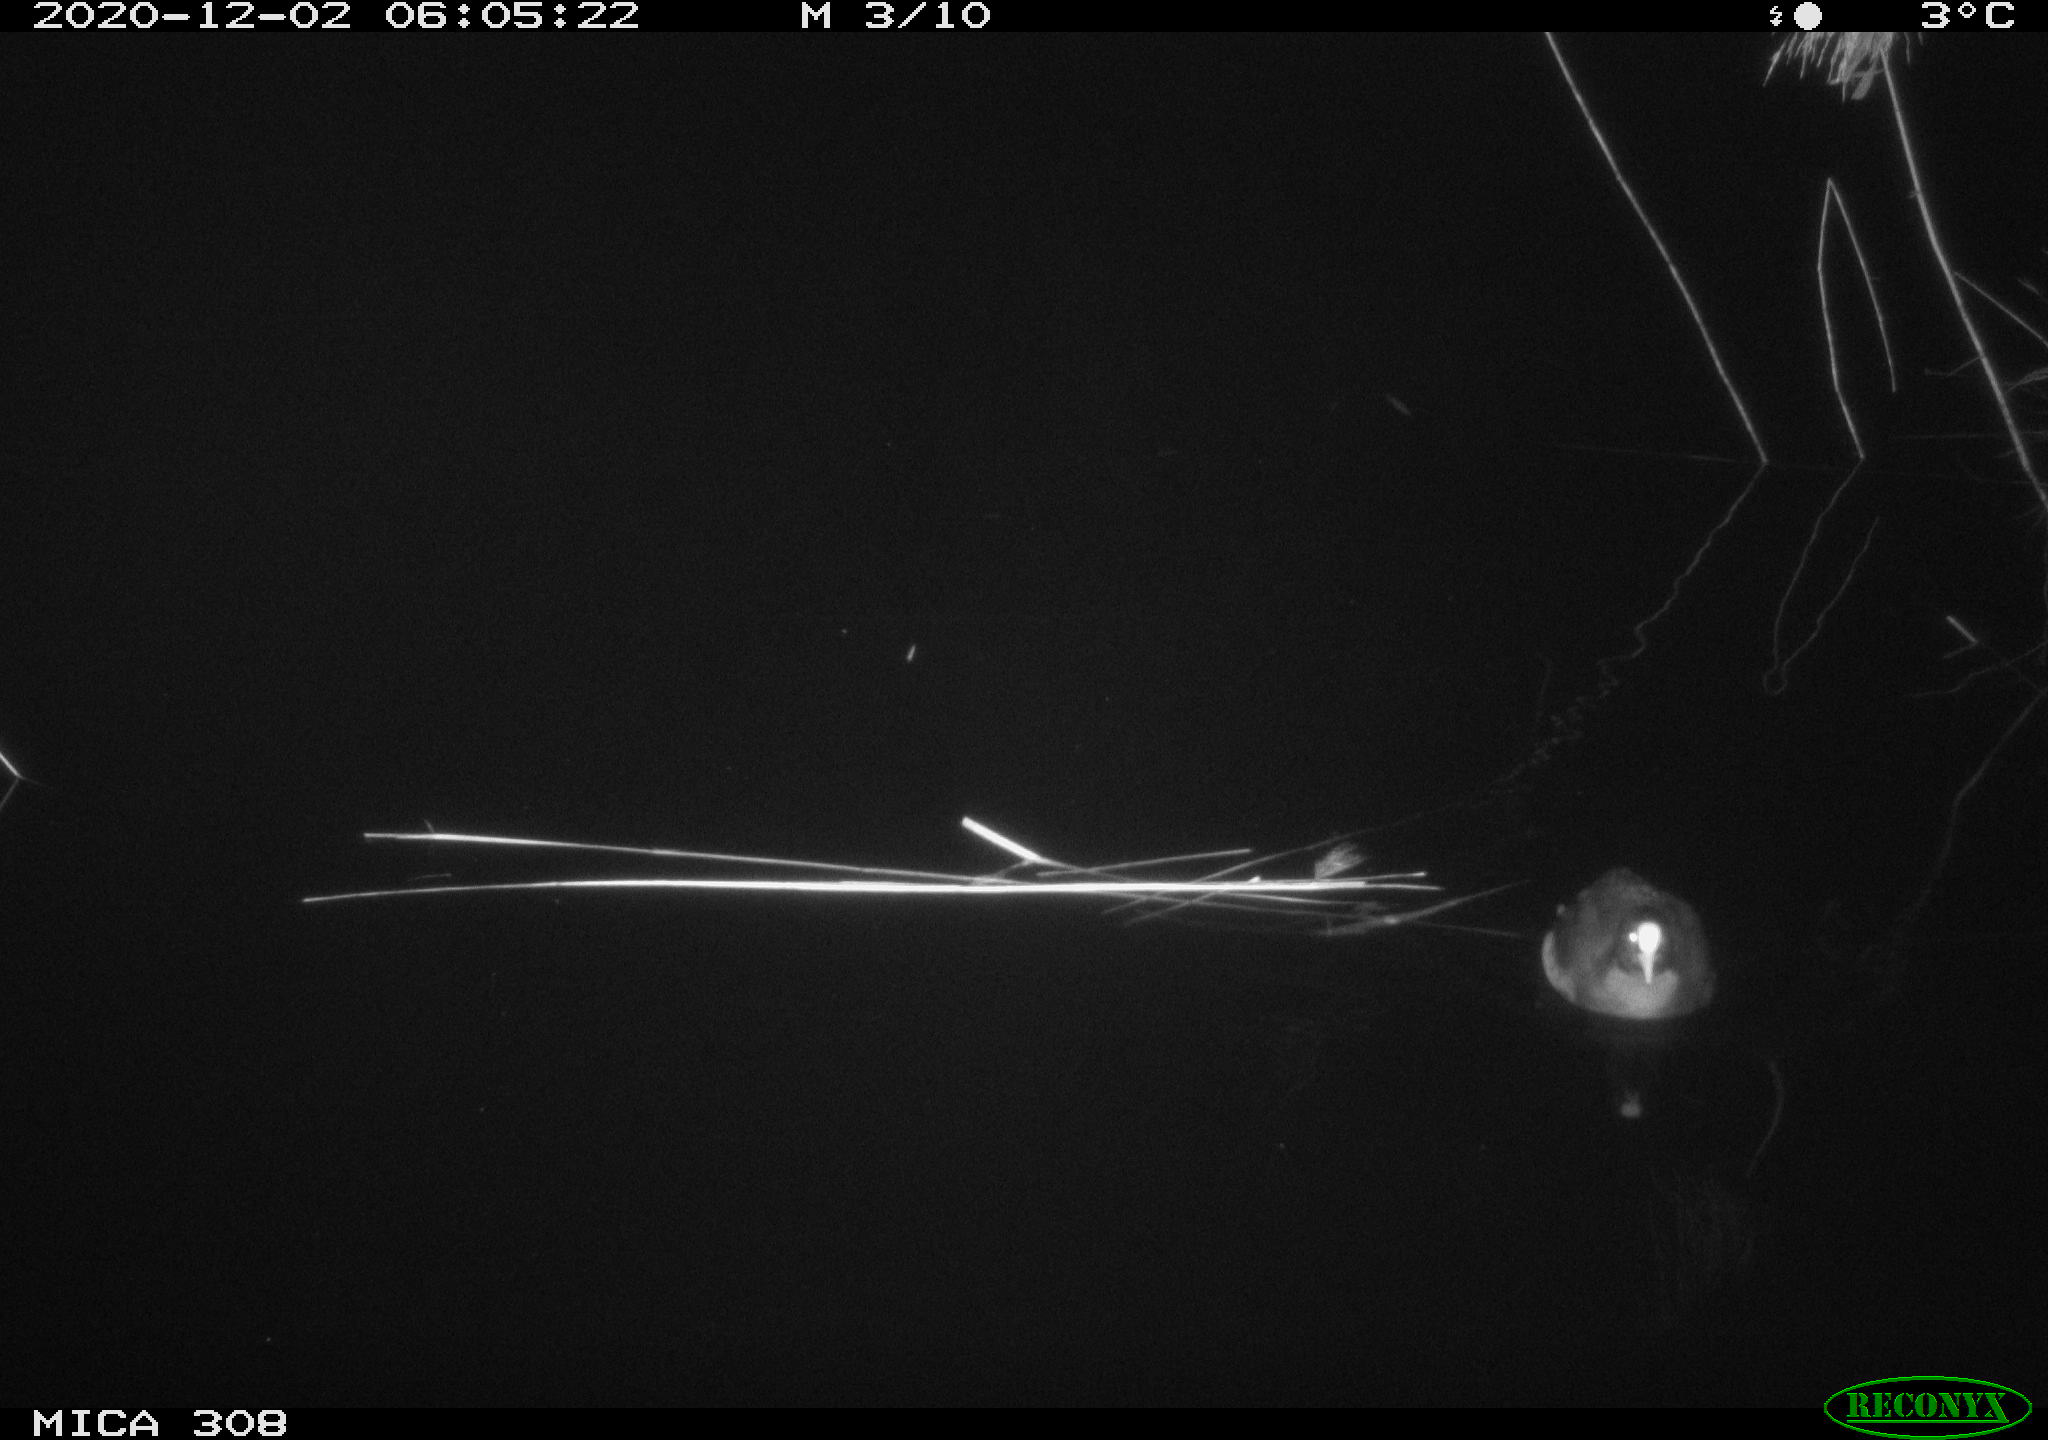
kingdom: Animalia
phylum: Chordata
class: Aves
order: Gruiformes
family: Rallidae
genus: Fulica
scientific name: Fulica atra
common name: Eurasian coot
